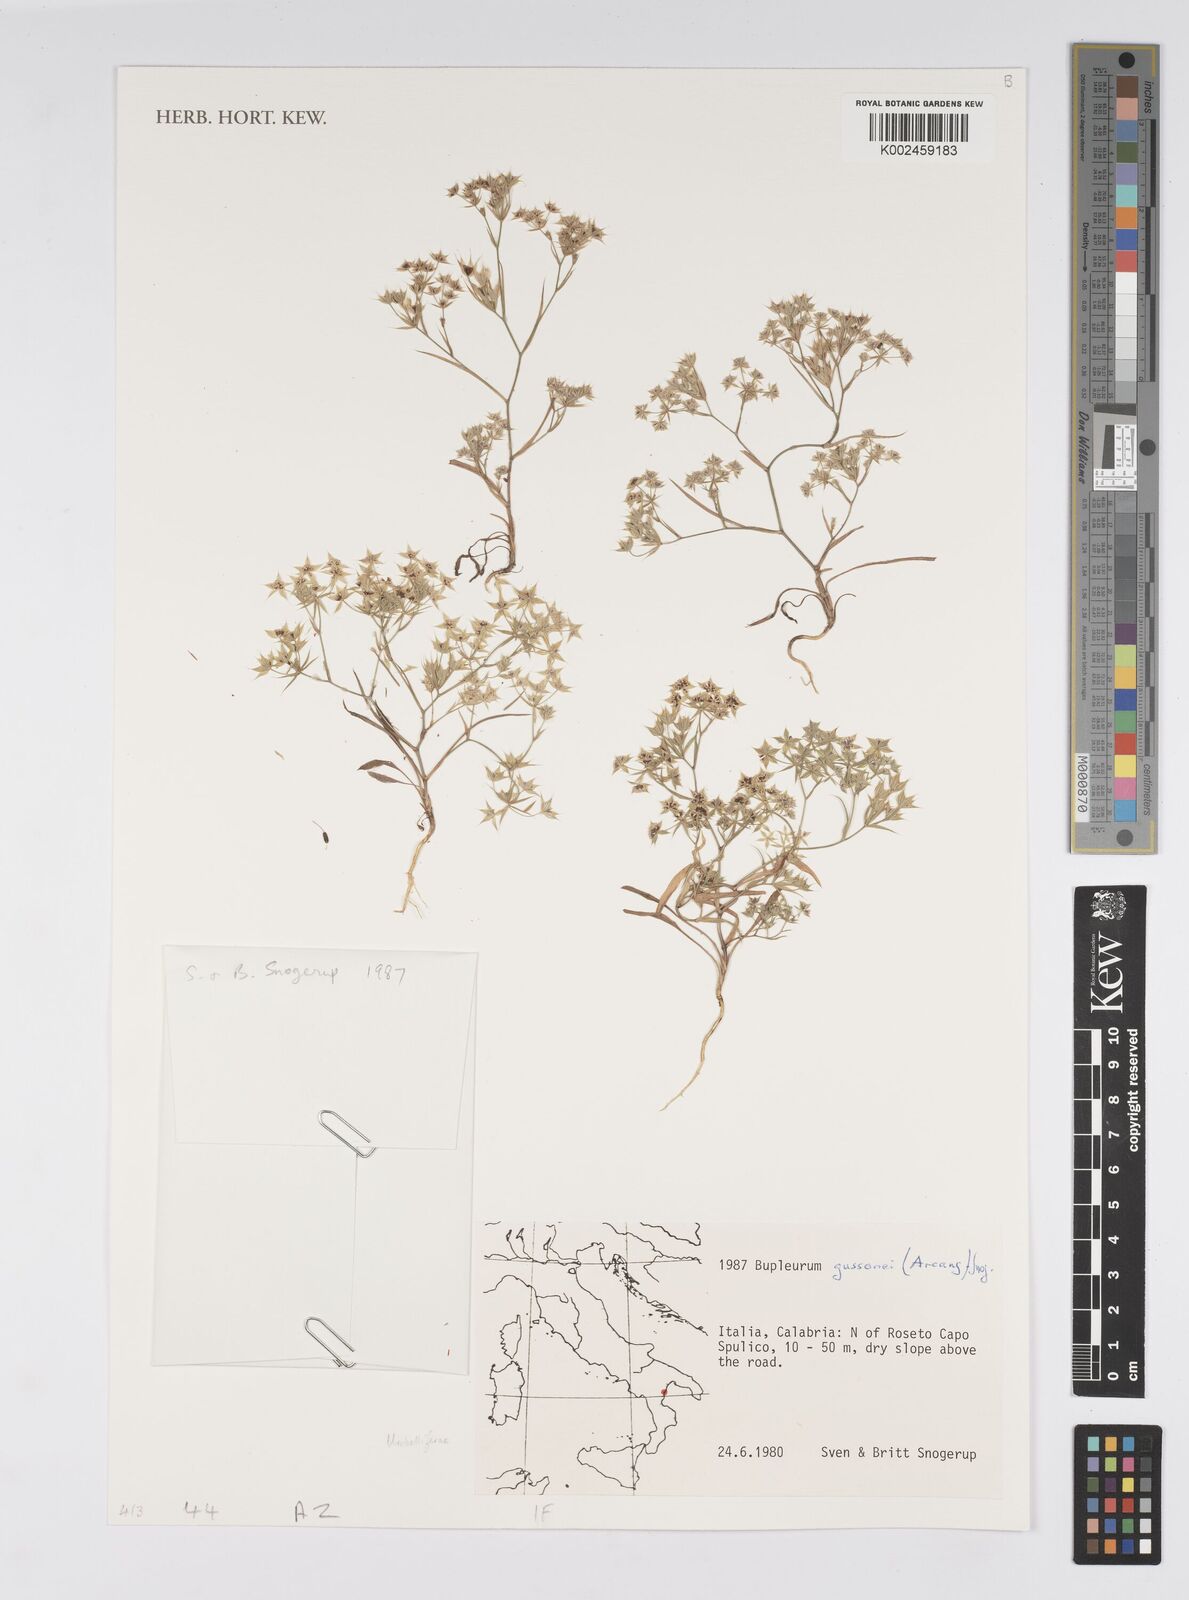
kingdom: Plantae
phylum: Tracheophyta
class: Magnoliopsida
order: Apiales
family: Apiaceae
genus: Bupleurum
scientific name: Bupleurum gussonei
